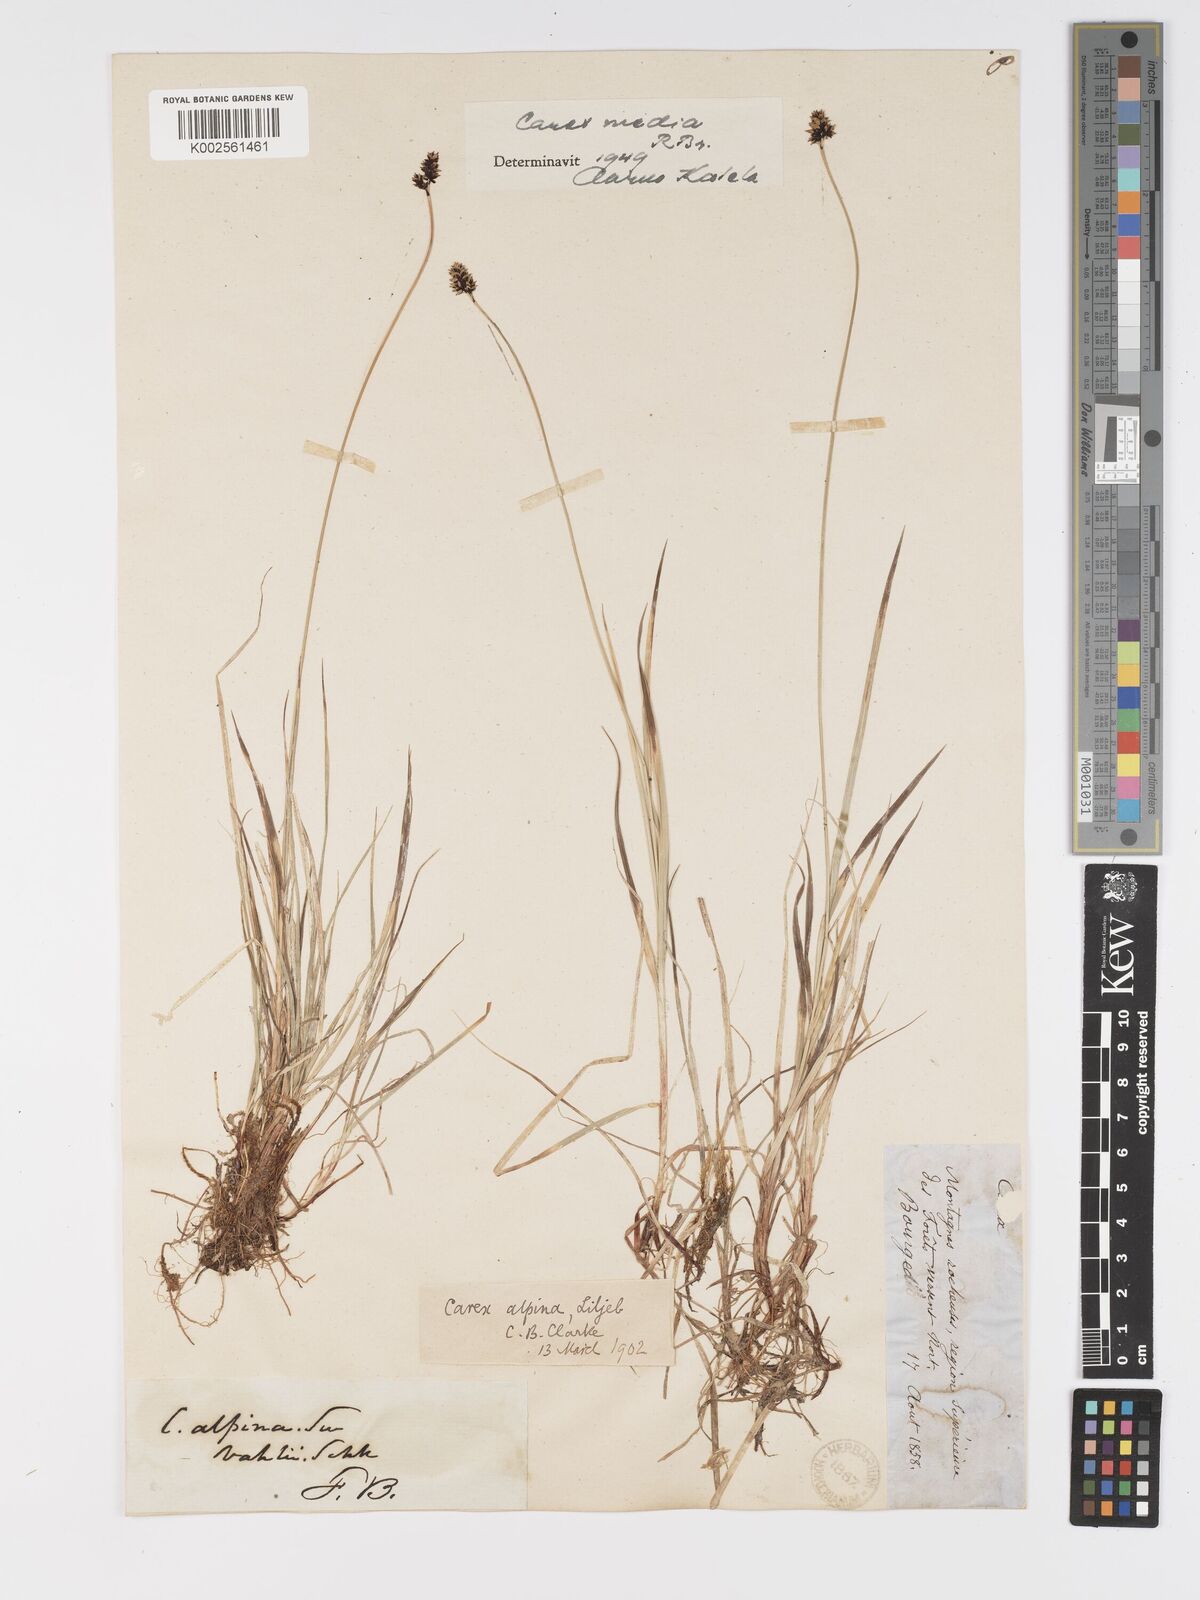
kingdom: Plantae
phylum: Tracheophyta
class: Liliopsida
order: Poales
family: Cyperaceae
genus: Carex
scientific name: Carex media
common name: Alpine sedge
